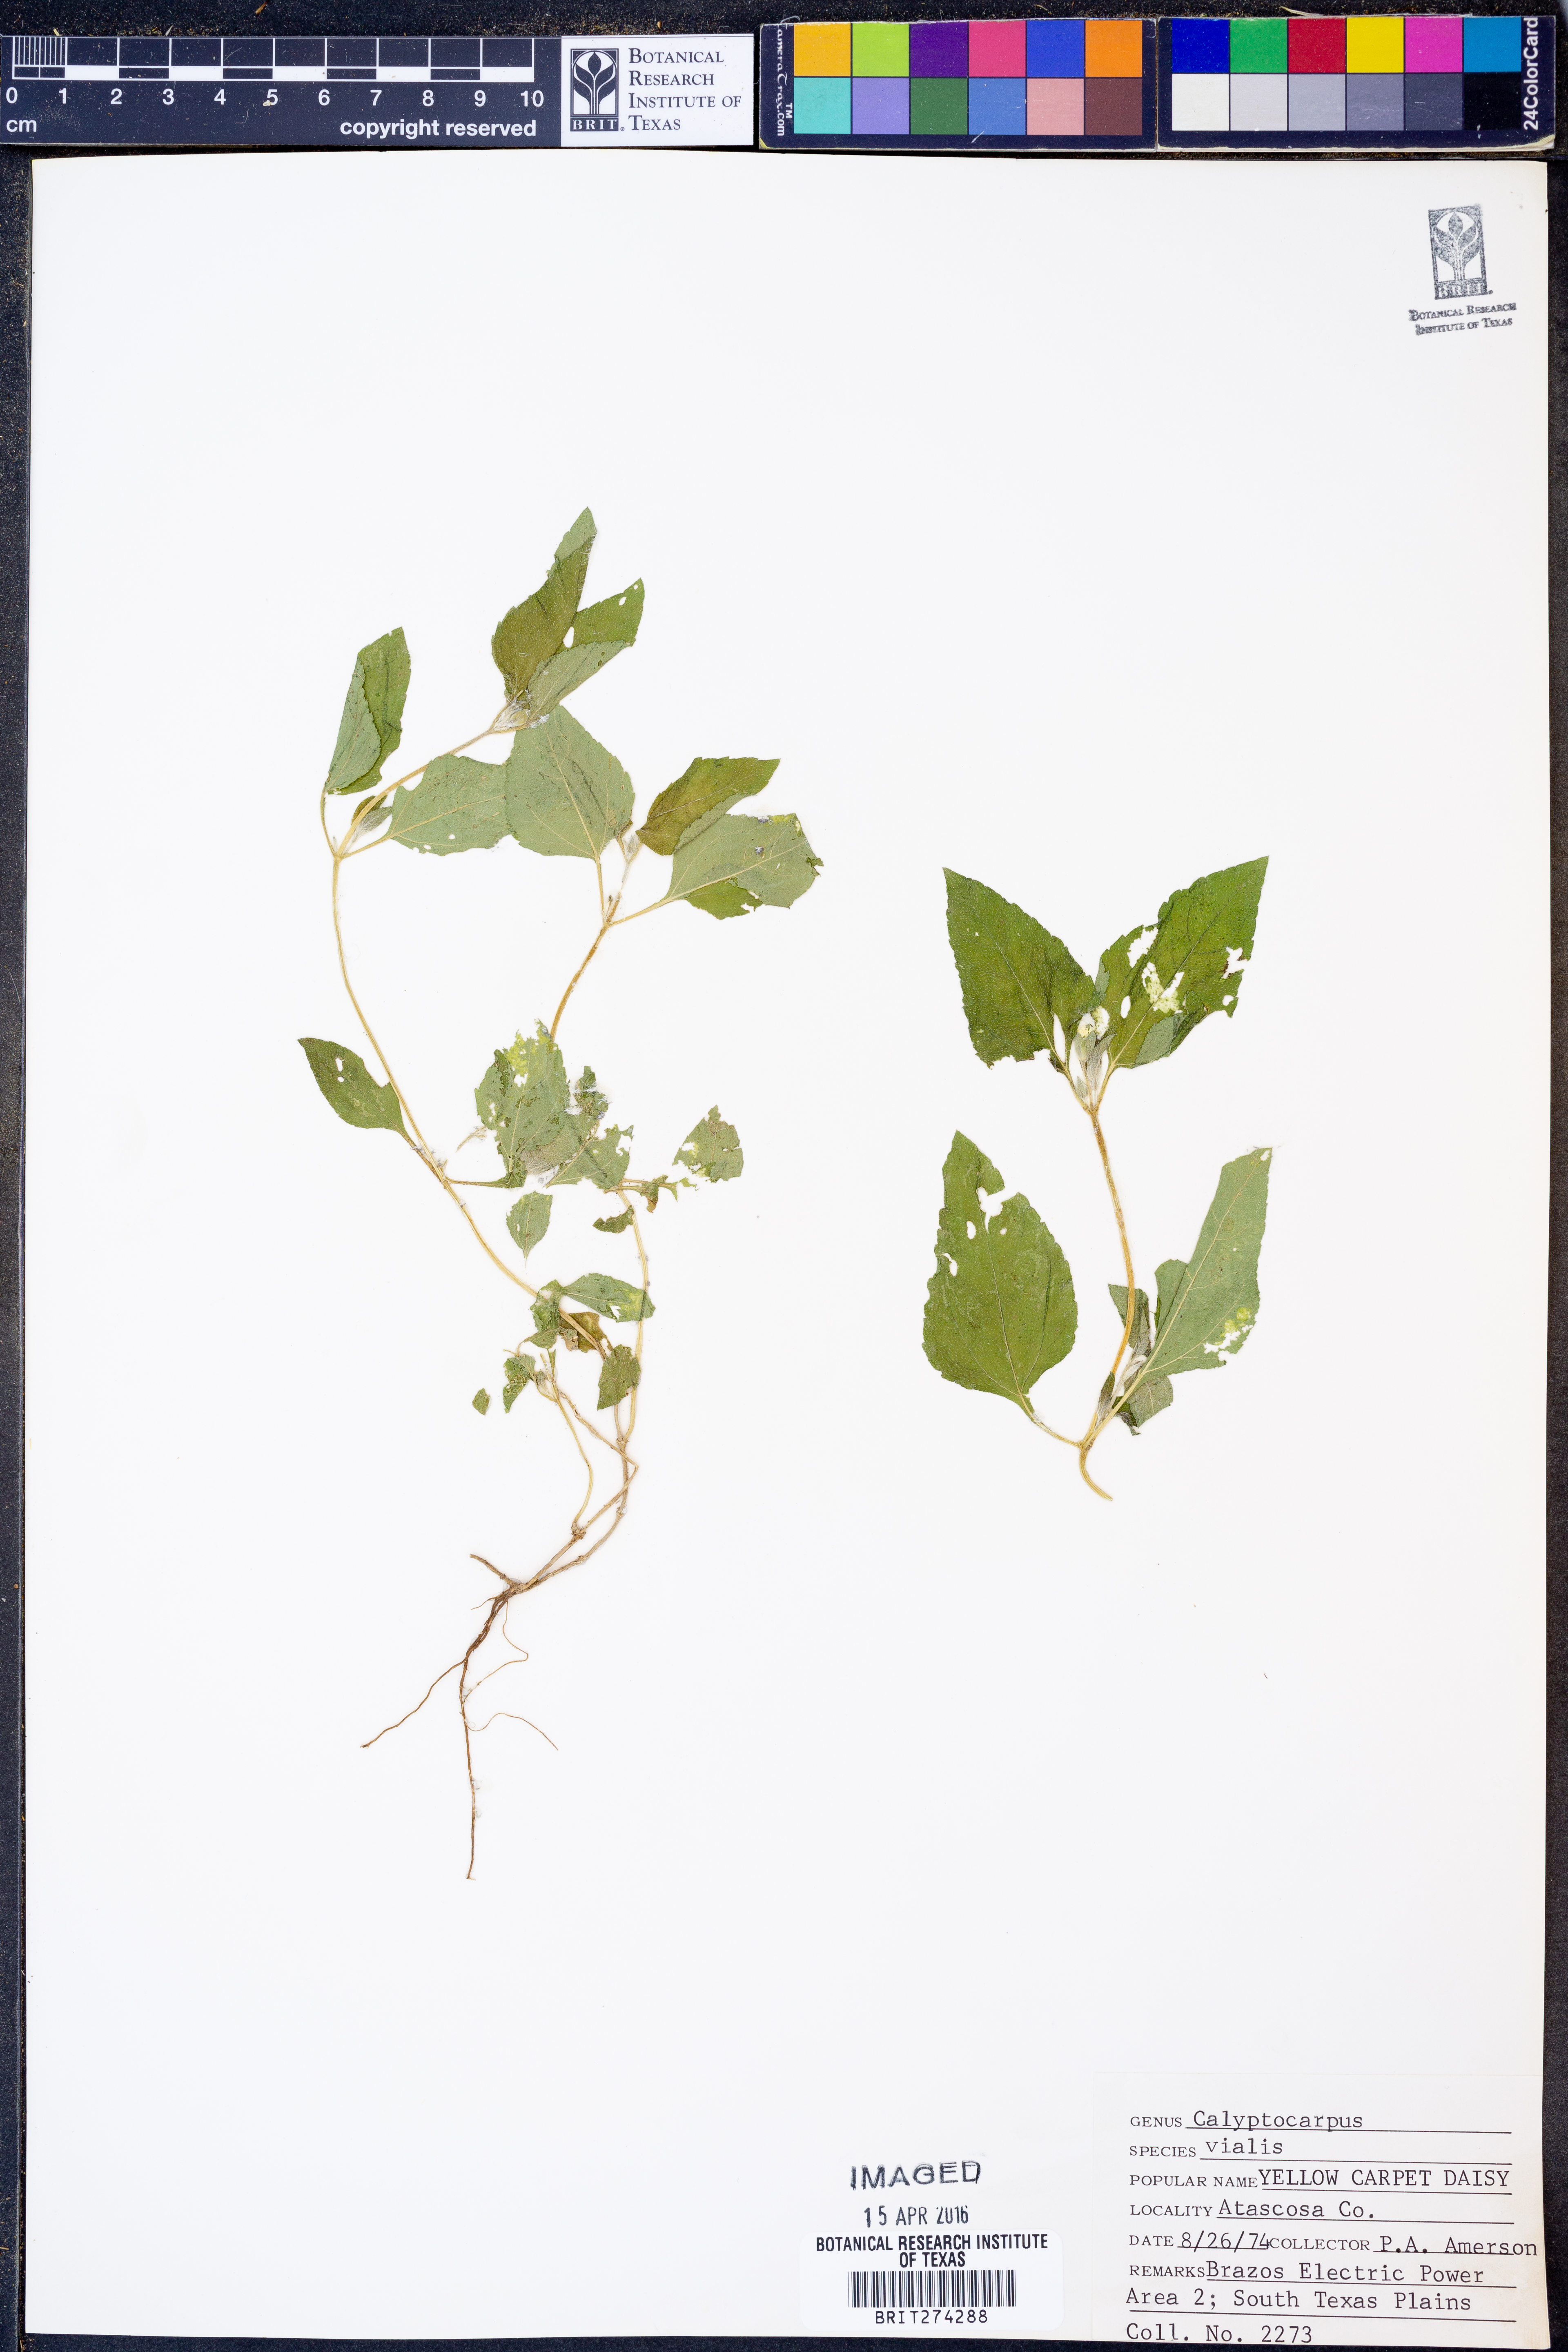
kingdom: Plantae
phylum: Tracheophyta
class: Magnoliopsida
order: Asterales
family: Asteraceae
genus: Calyptocarpus
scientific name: Calyptocarpus vialis
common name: Straggler daisy
